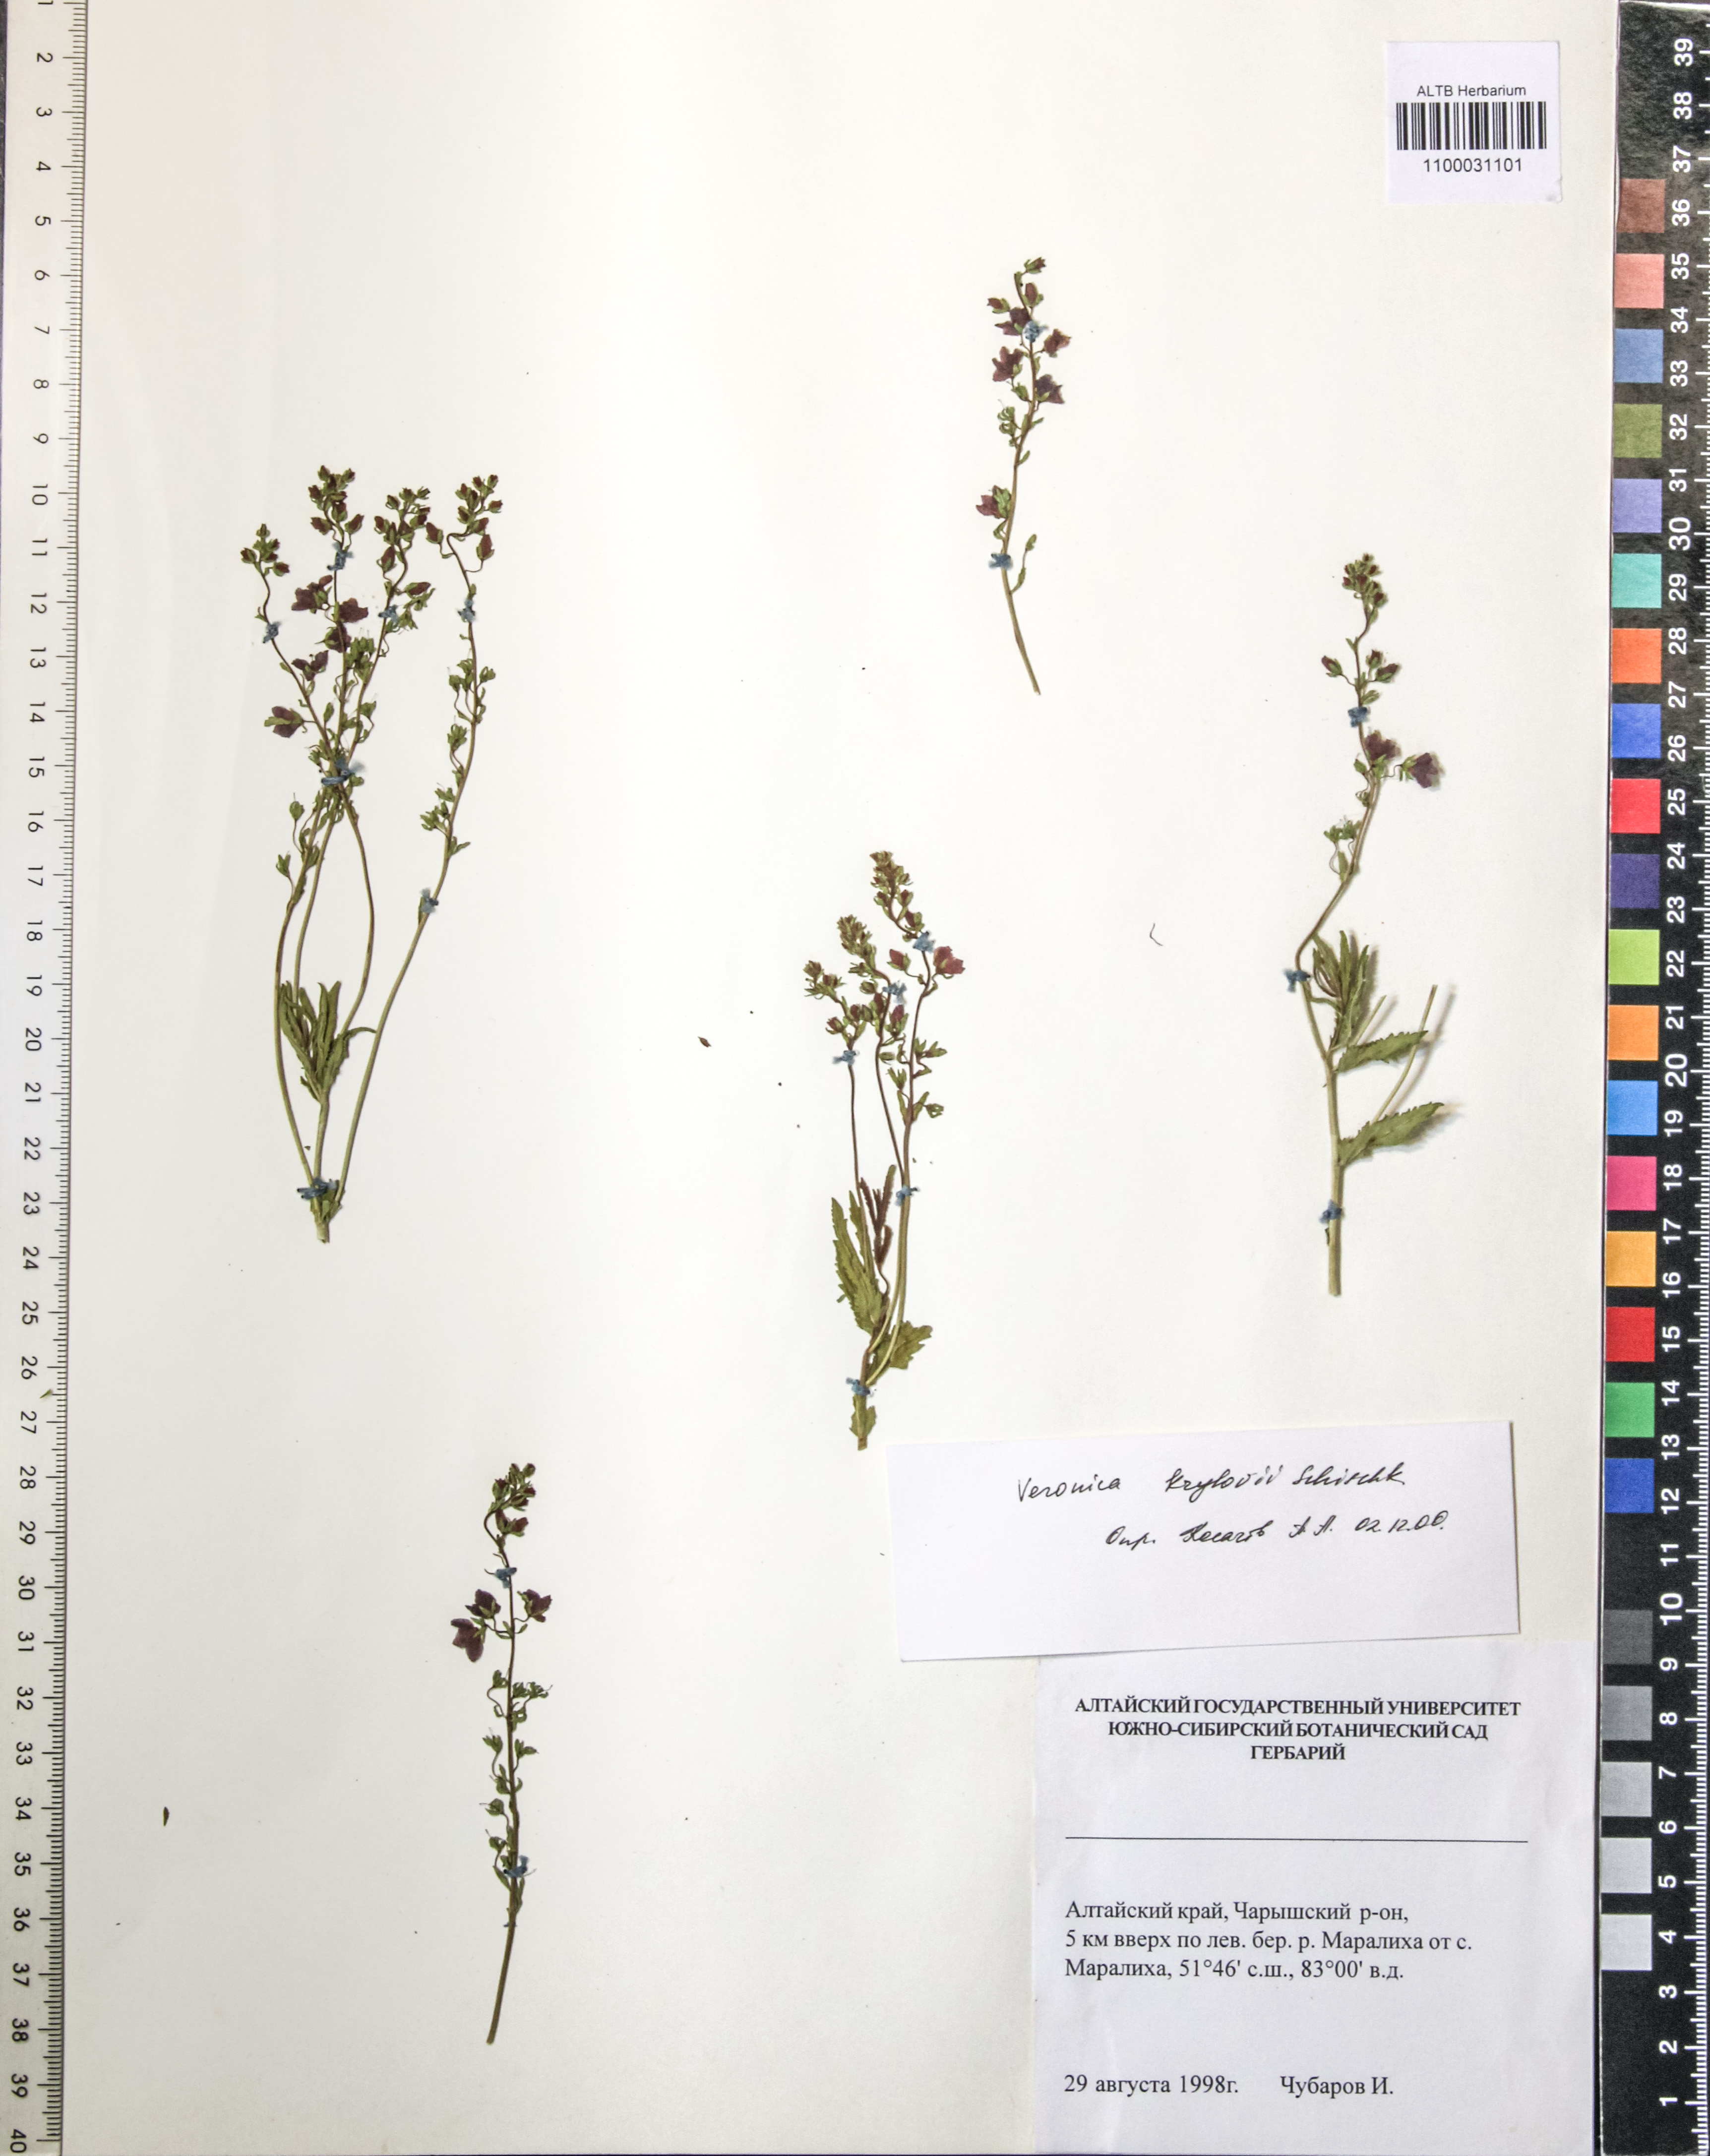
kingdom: Plantae
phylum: Tracheophyta
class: Magnoliopsida
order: Lamiales
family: Plantaginaceae
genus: Veronica
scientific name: Veronica krylovii
